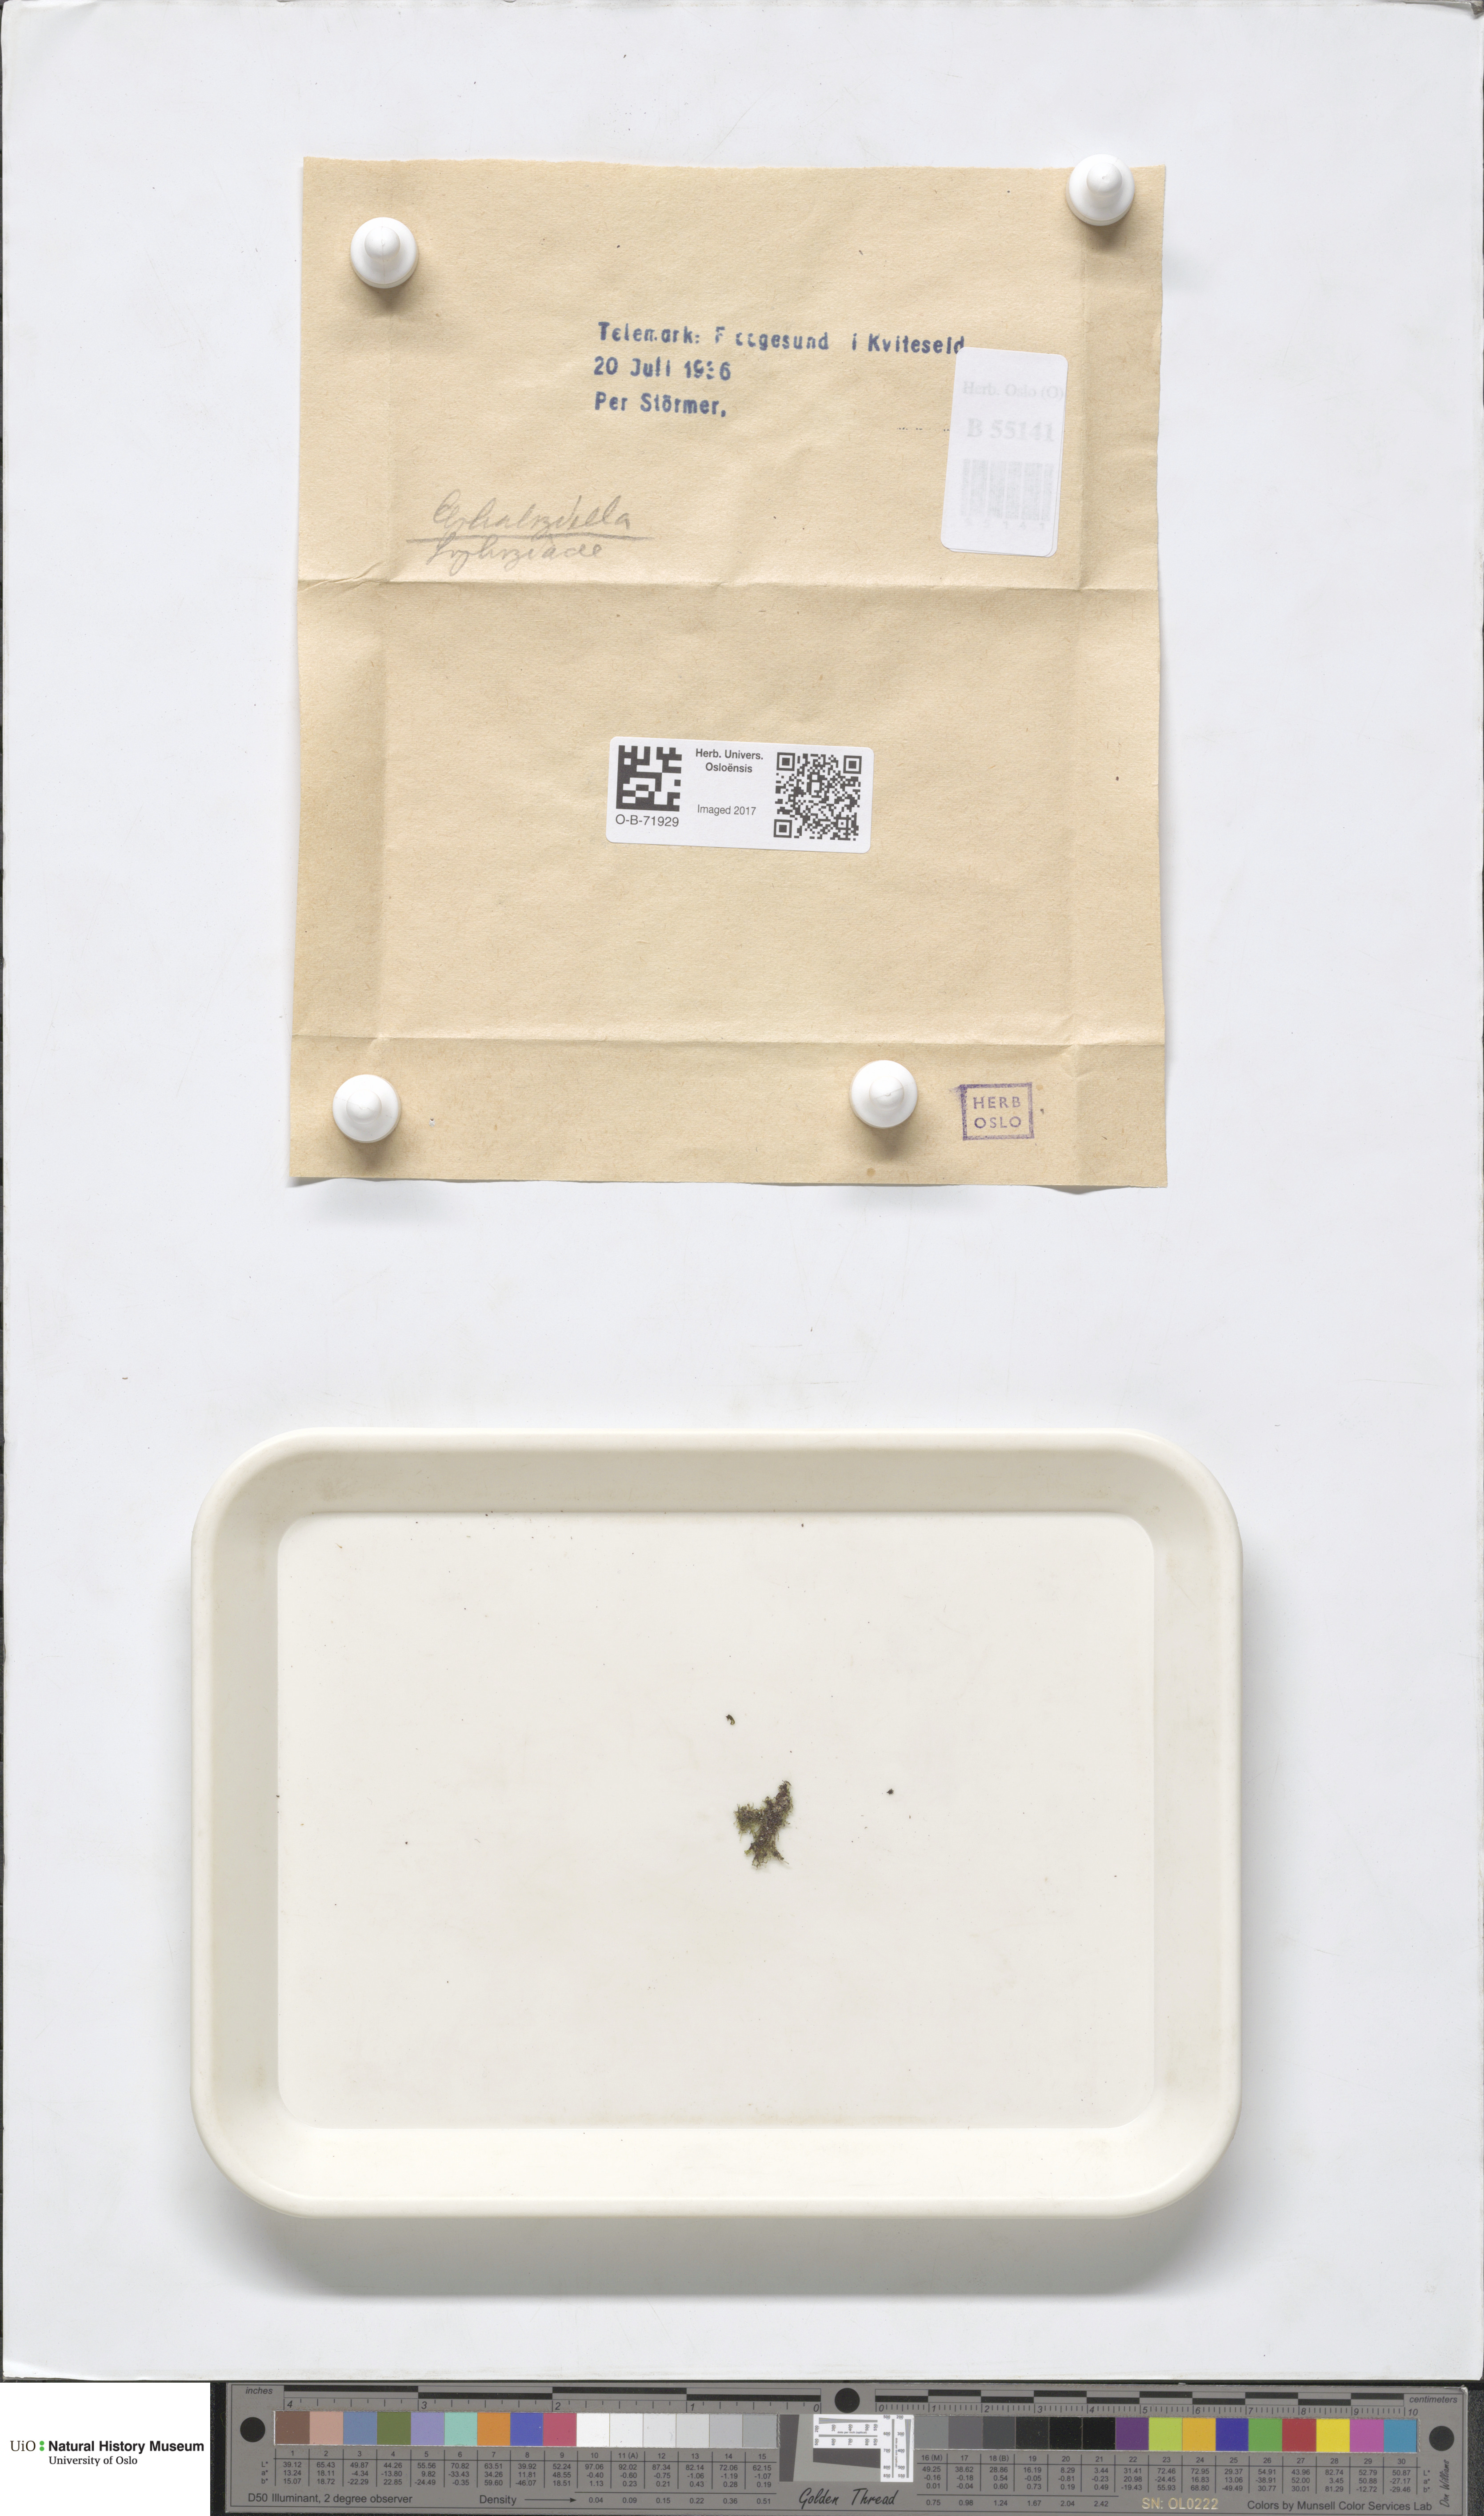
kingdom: Plantae
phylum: Marchantiophyta
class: Jungermanniopsida
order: Jungermanniales
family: Cephaloziellaceae
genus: Cephaloziella
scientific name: Cephaloziella
